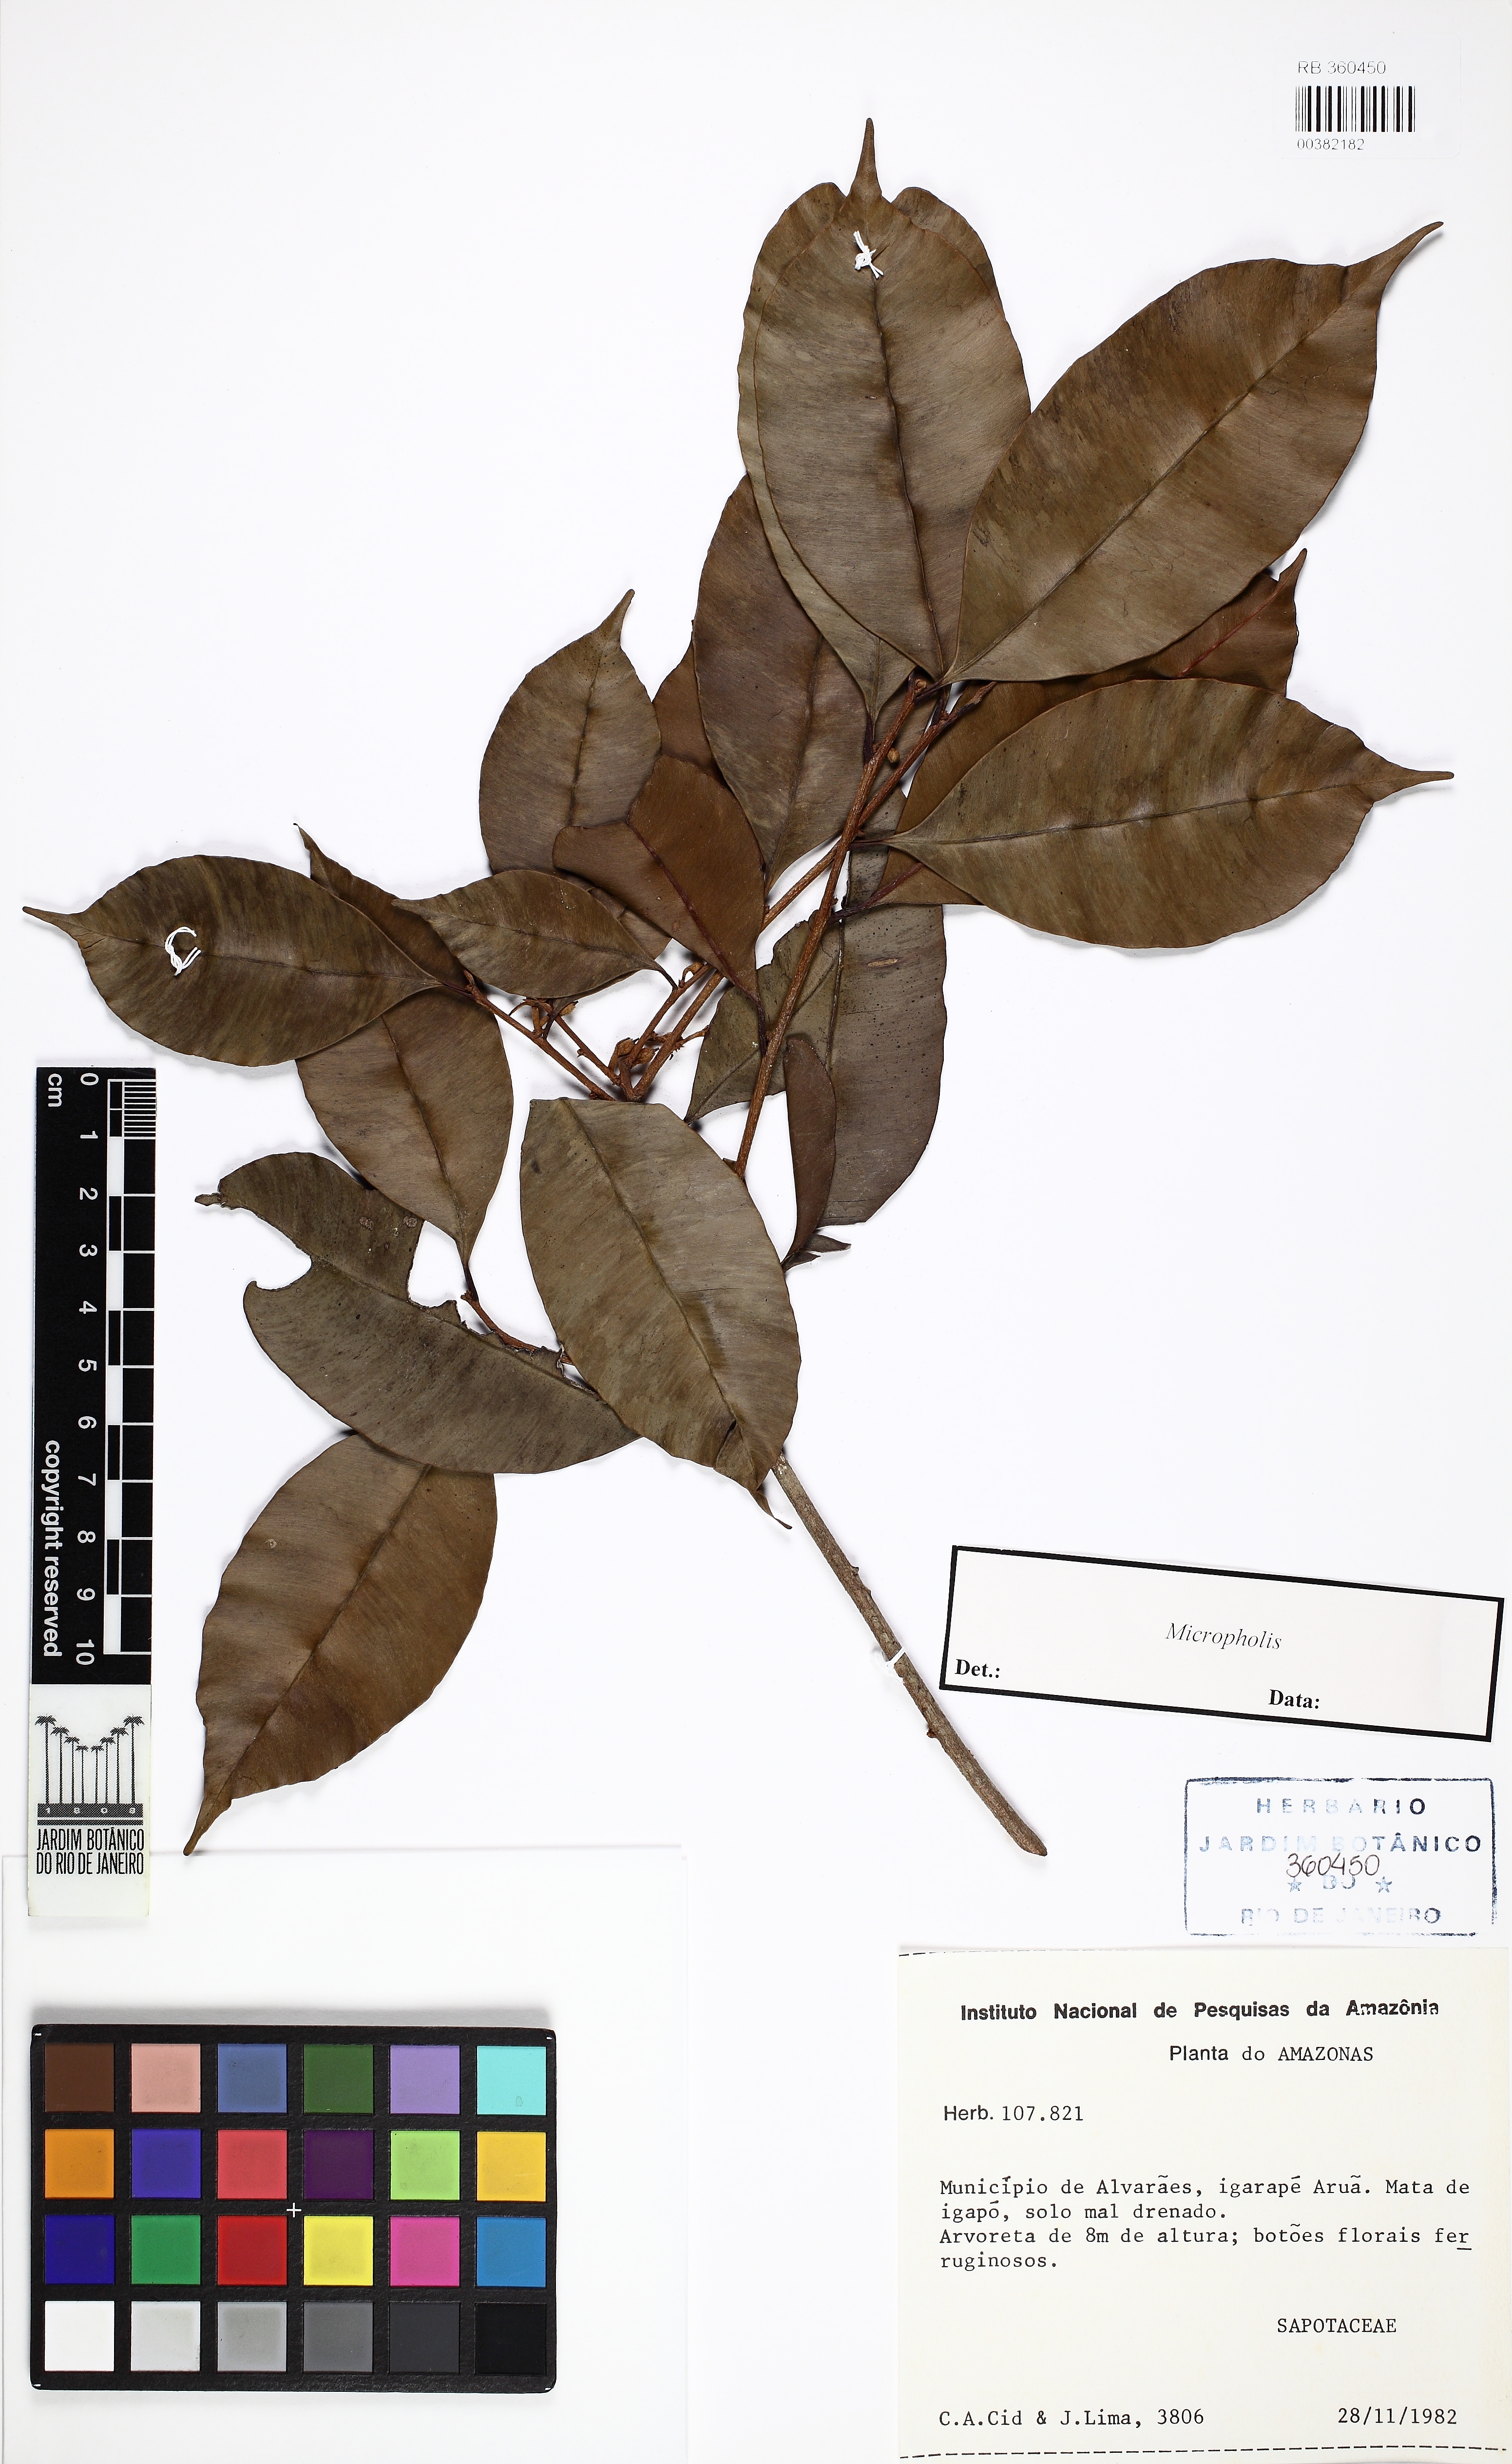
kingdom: Plantae
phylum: Tracheophyta
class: Magnoliopsida
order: Ericales
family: Sapotaceae
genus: Micropholis
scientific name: Micropholis
